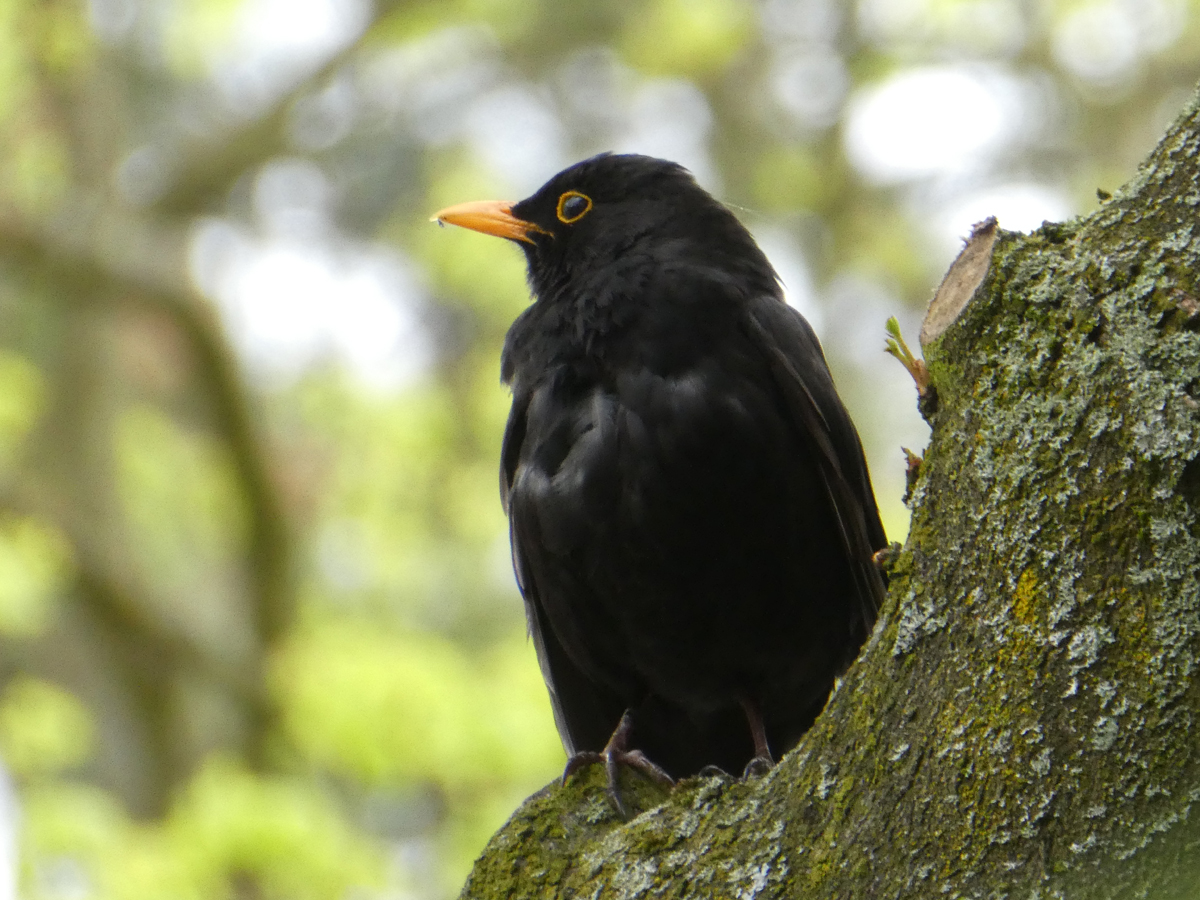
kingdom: Animalia
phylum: Chordata
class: Aves
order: Passeriformes
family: Turdidae
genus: Turdus
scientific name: Turdus merula
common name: Common blackbird
